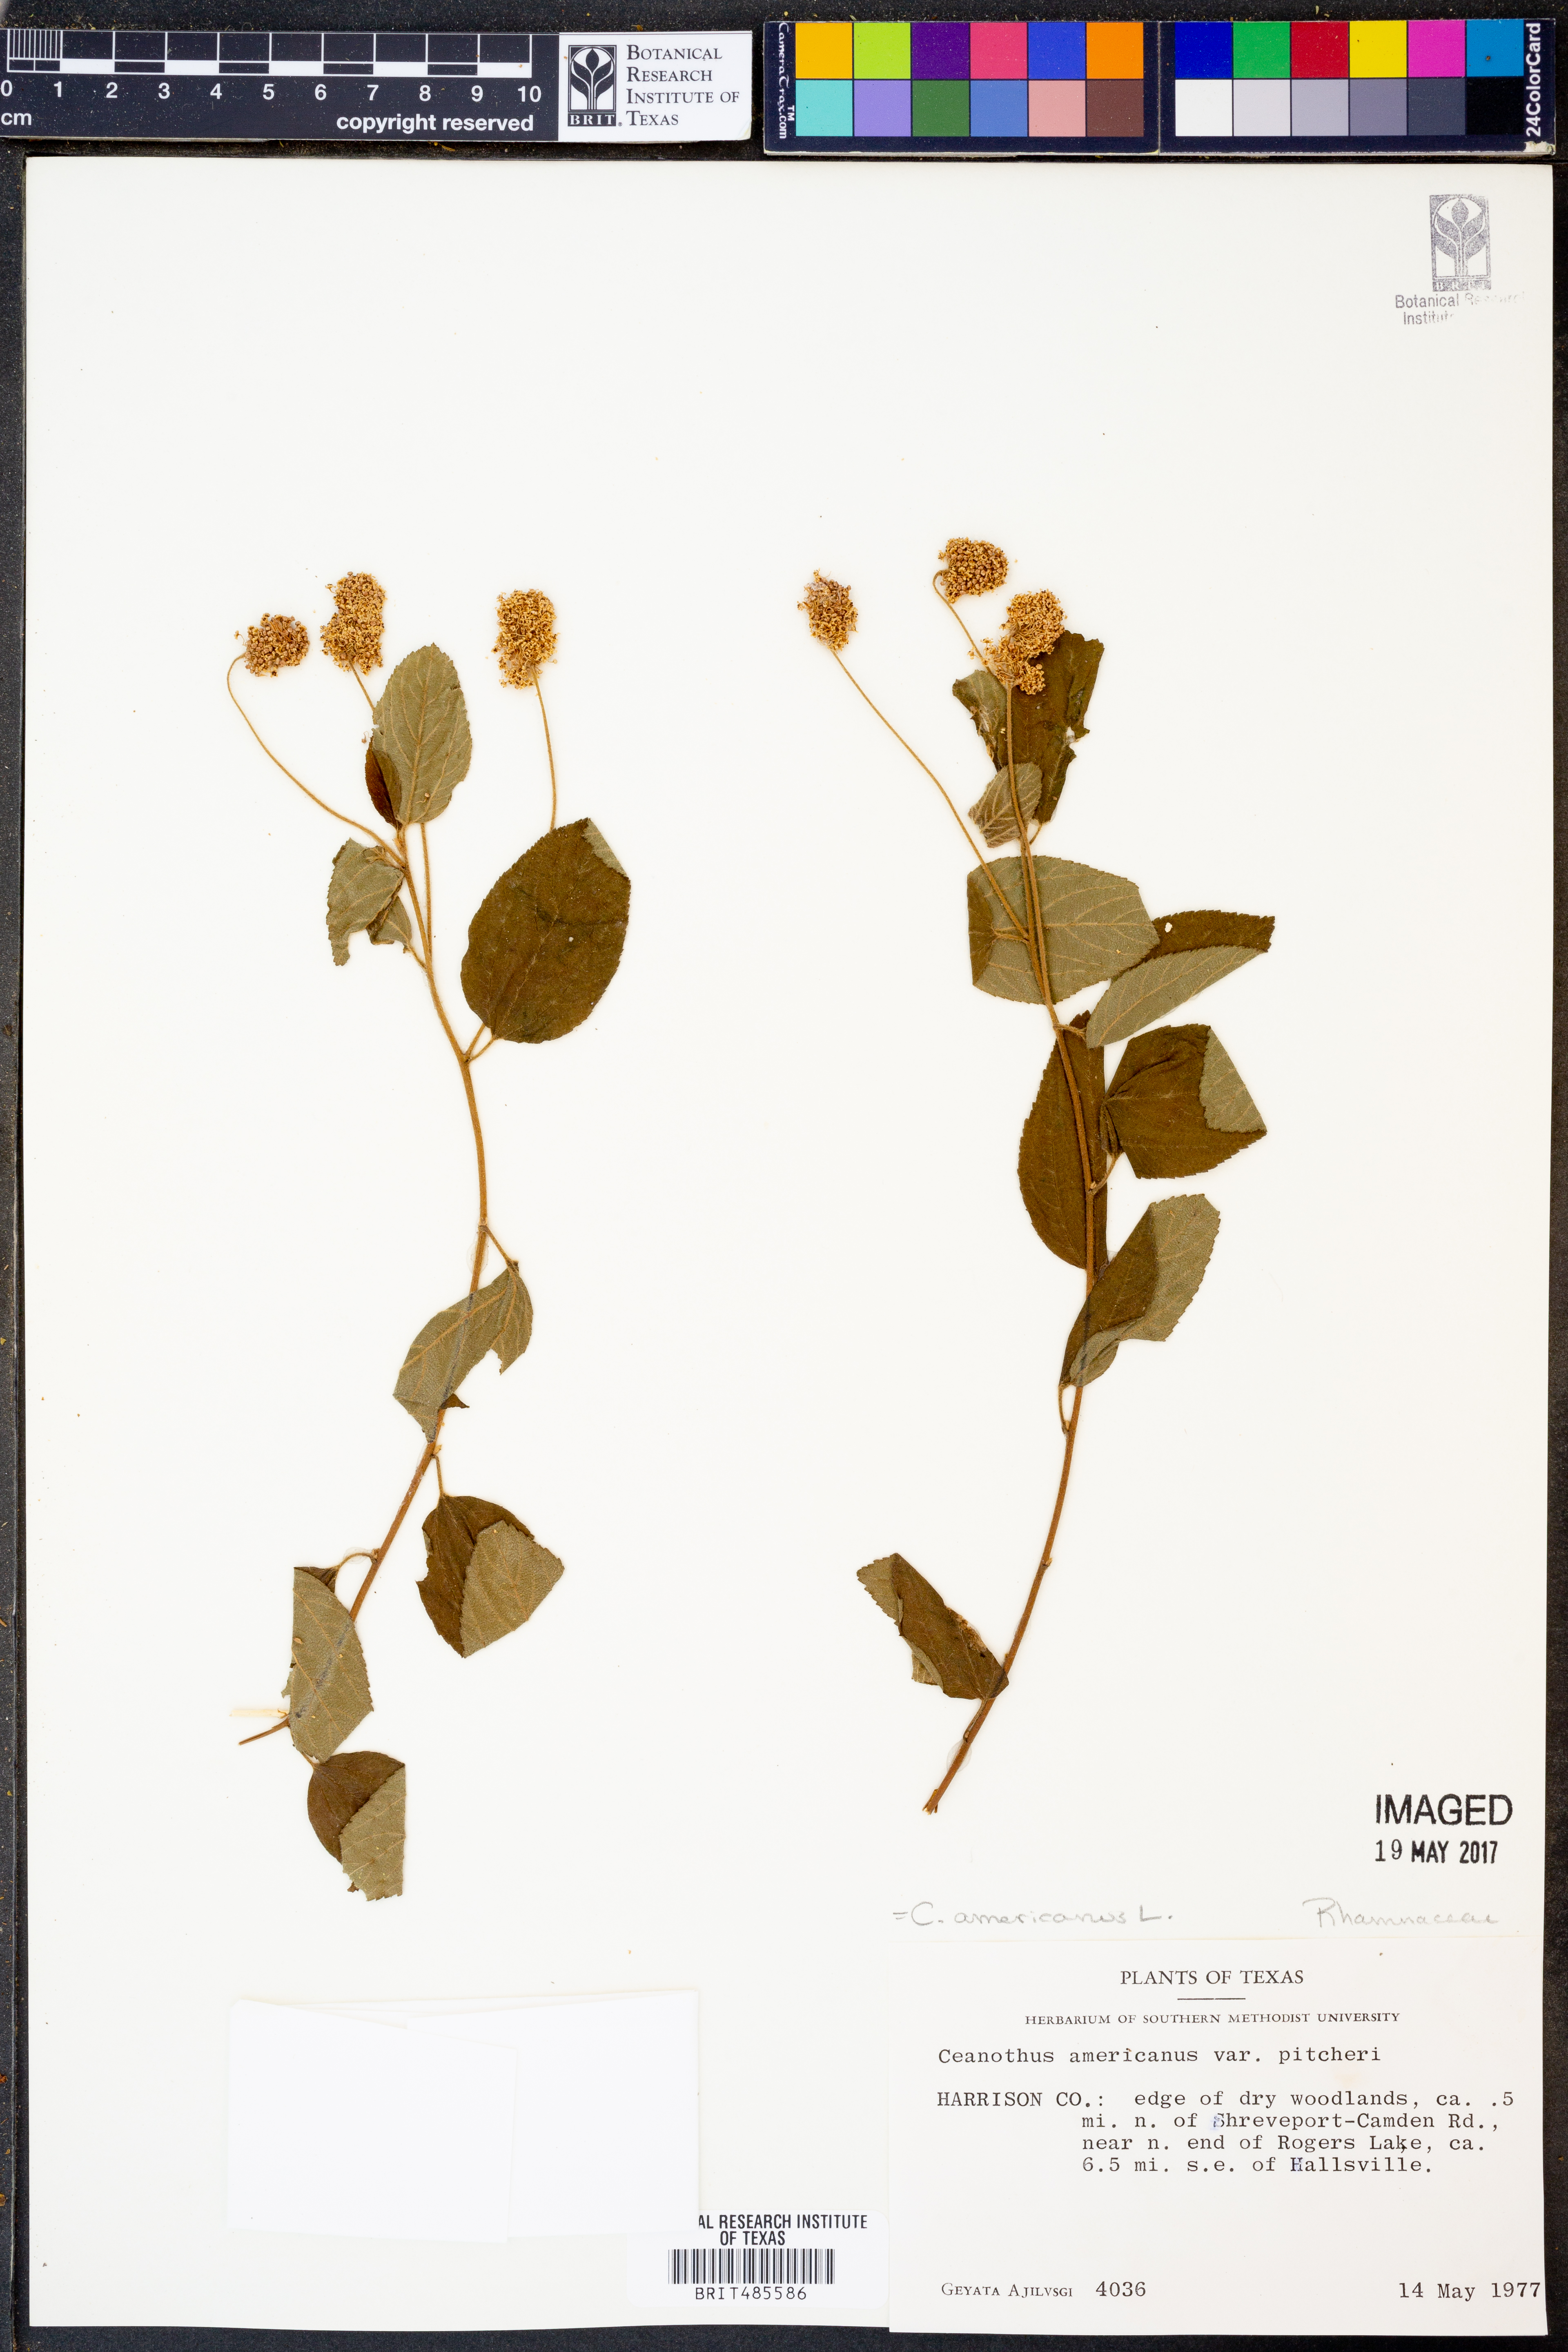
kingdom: Plantae
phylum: Tracheophyta
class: Magnoliopsida
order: Rosales
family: Rhamnaceae
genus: Ceanothus
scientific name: Ceanothus americanus
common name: Redroot
